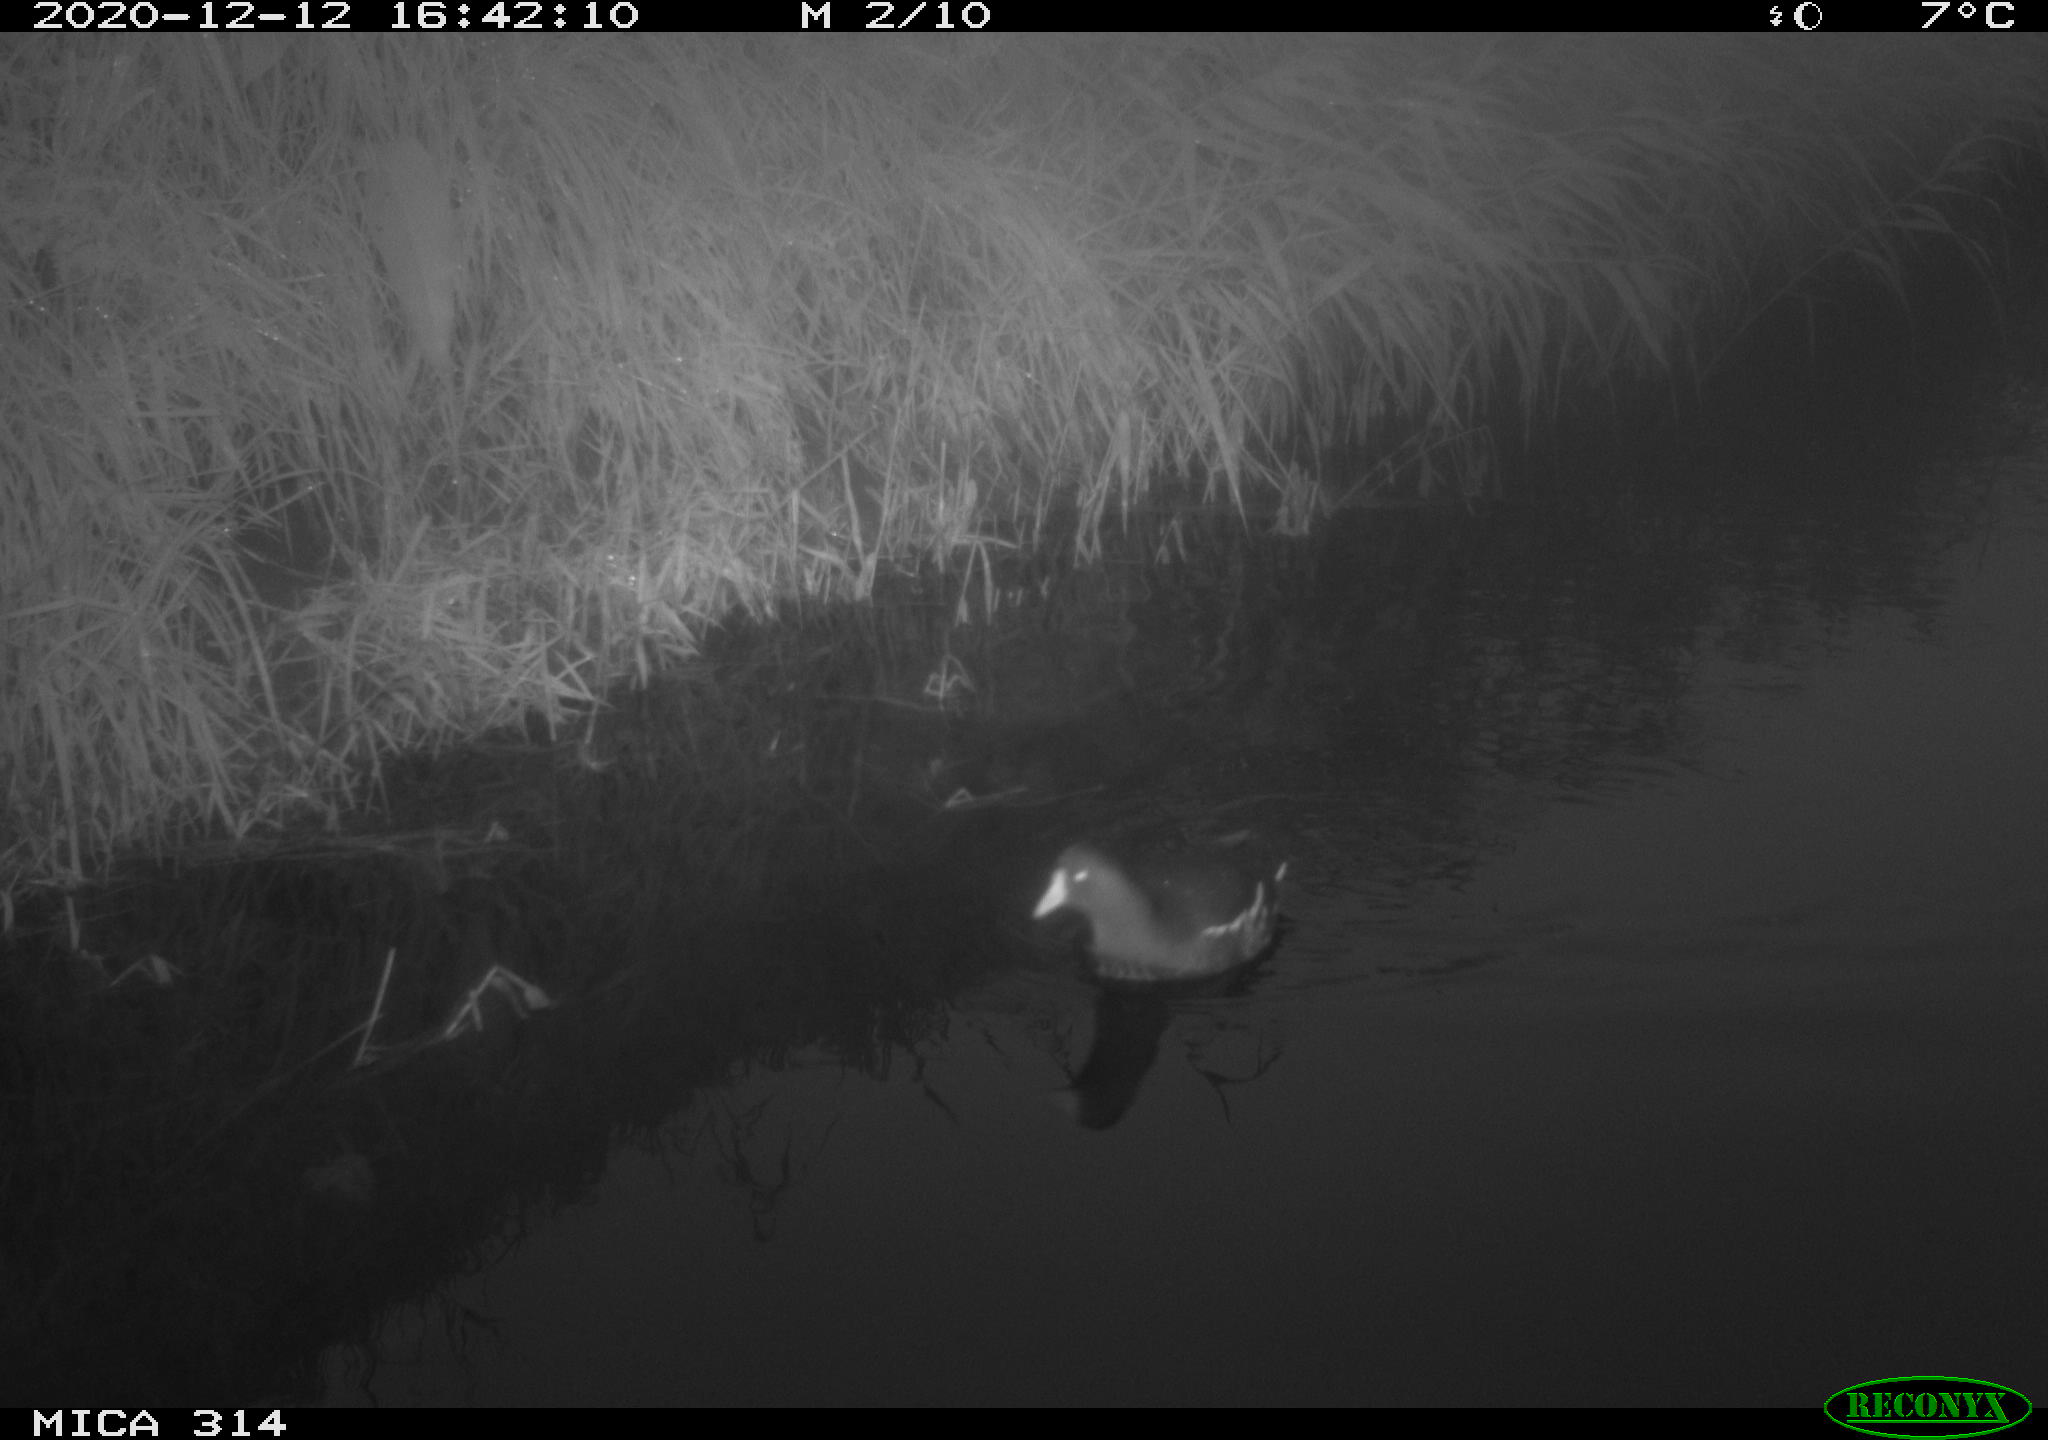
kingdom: Animalia
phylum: Chordata
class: Aves
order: Gruiformes
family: Rallidae
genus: Gallinula
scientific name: Gallinula chloropus
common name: Common moorhen
